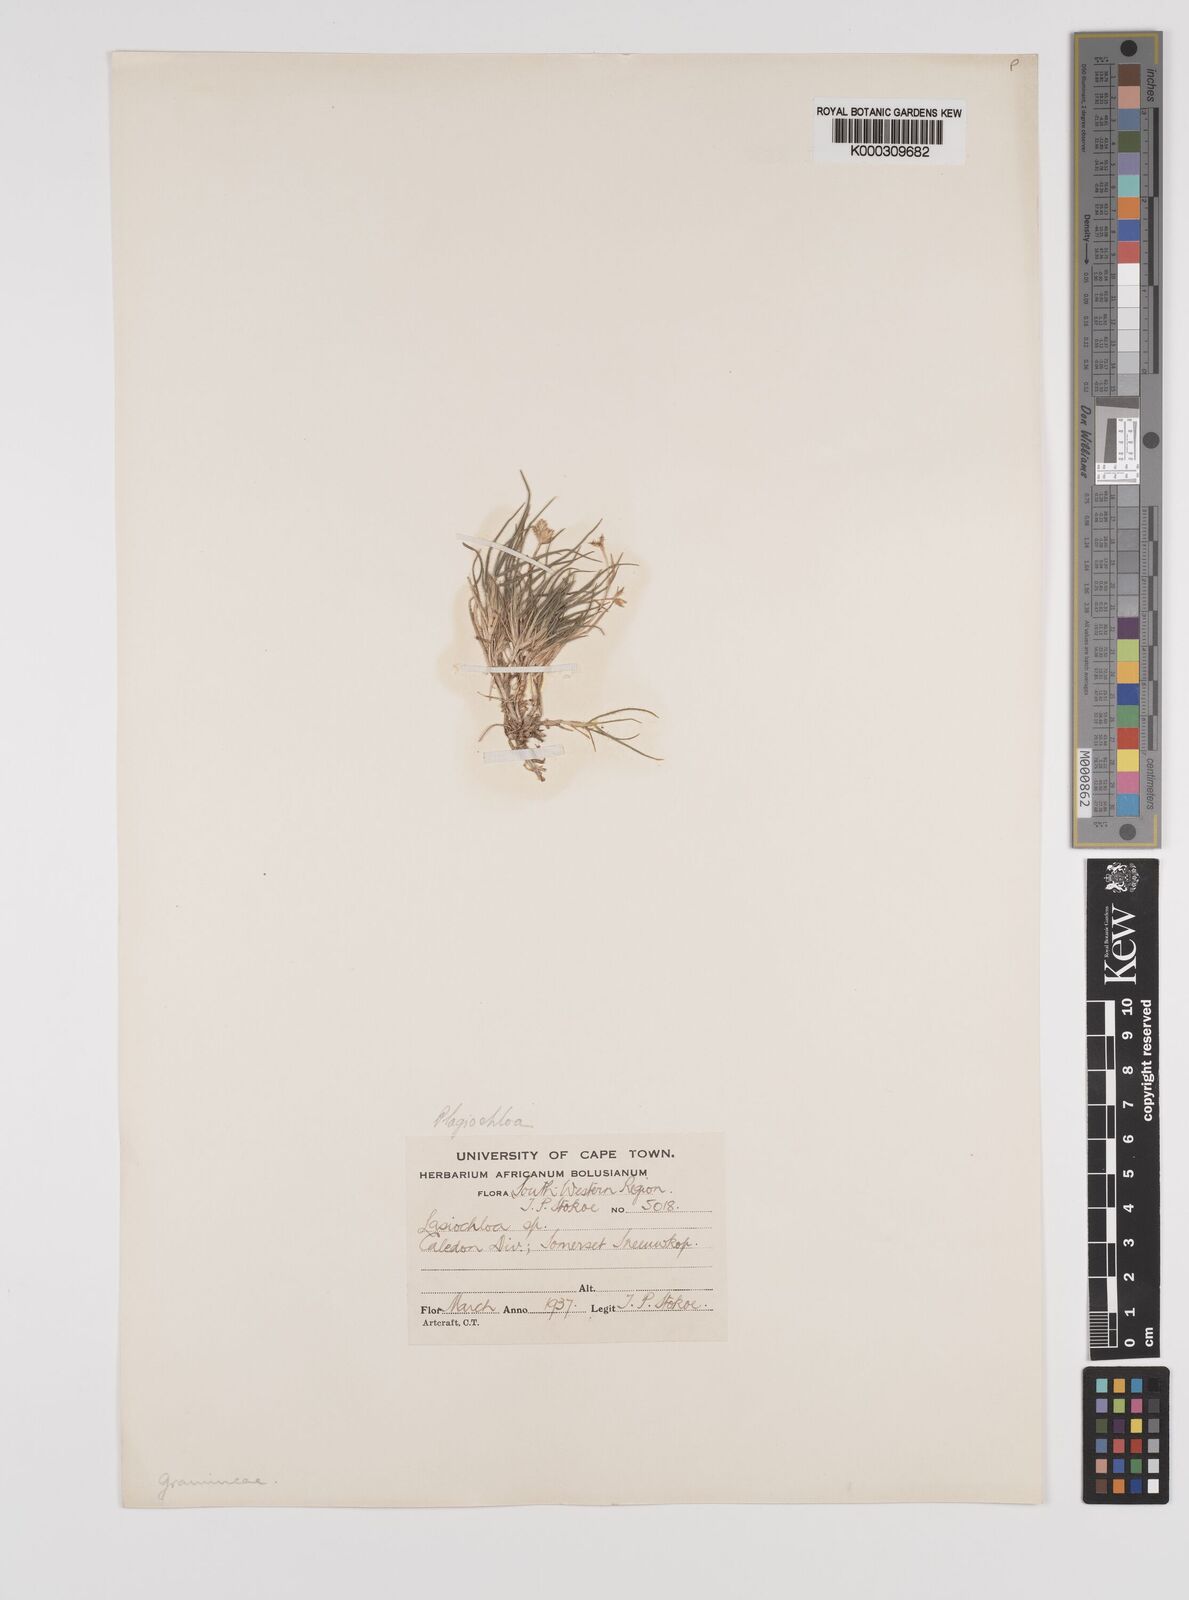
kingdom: Plantae
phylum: Tracheophyta
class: Liliopsida
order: Poales
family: Poaceae
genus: Tribolium
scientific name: Tribolium brachystachyum
